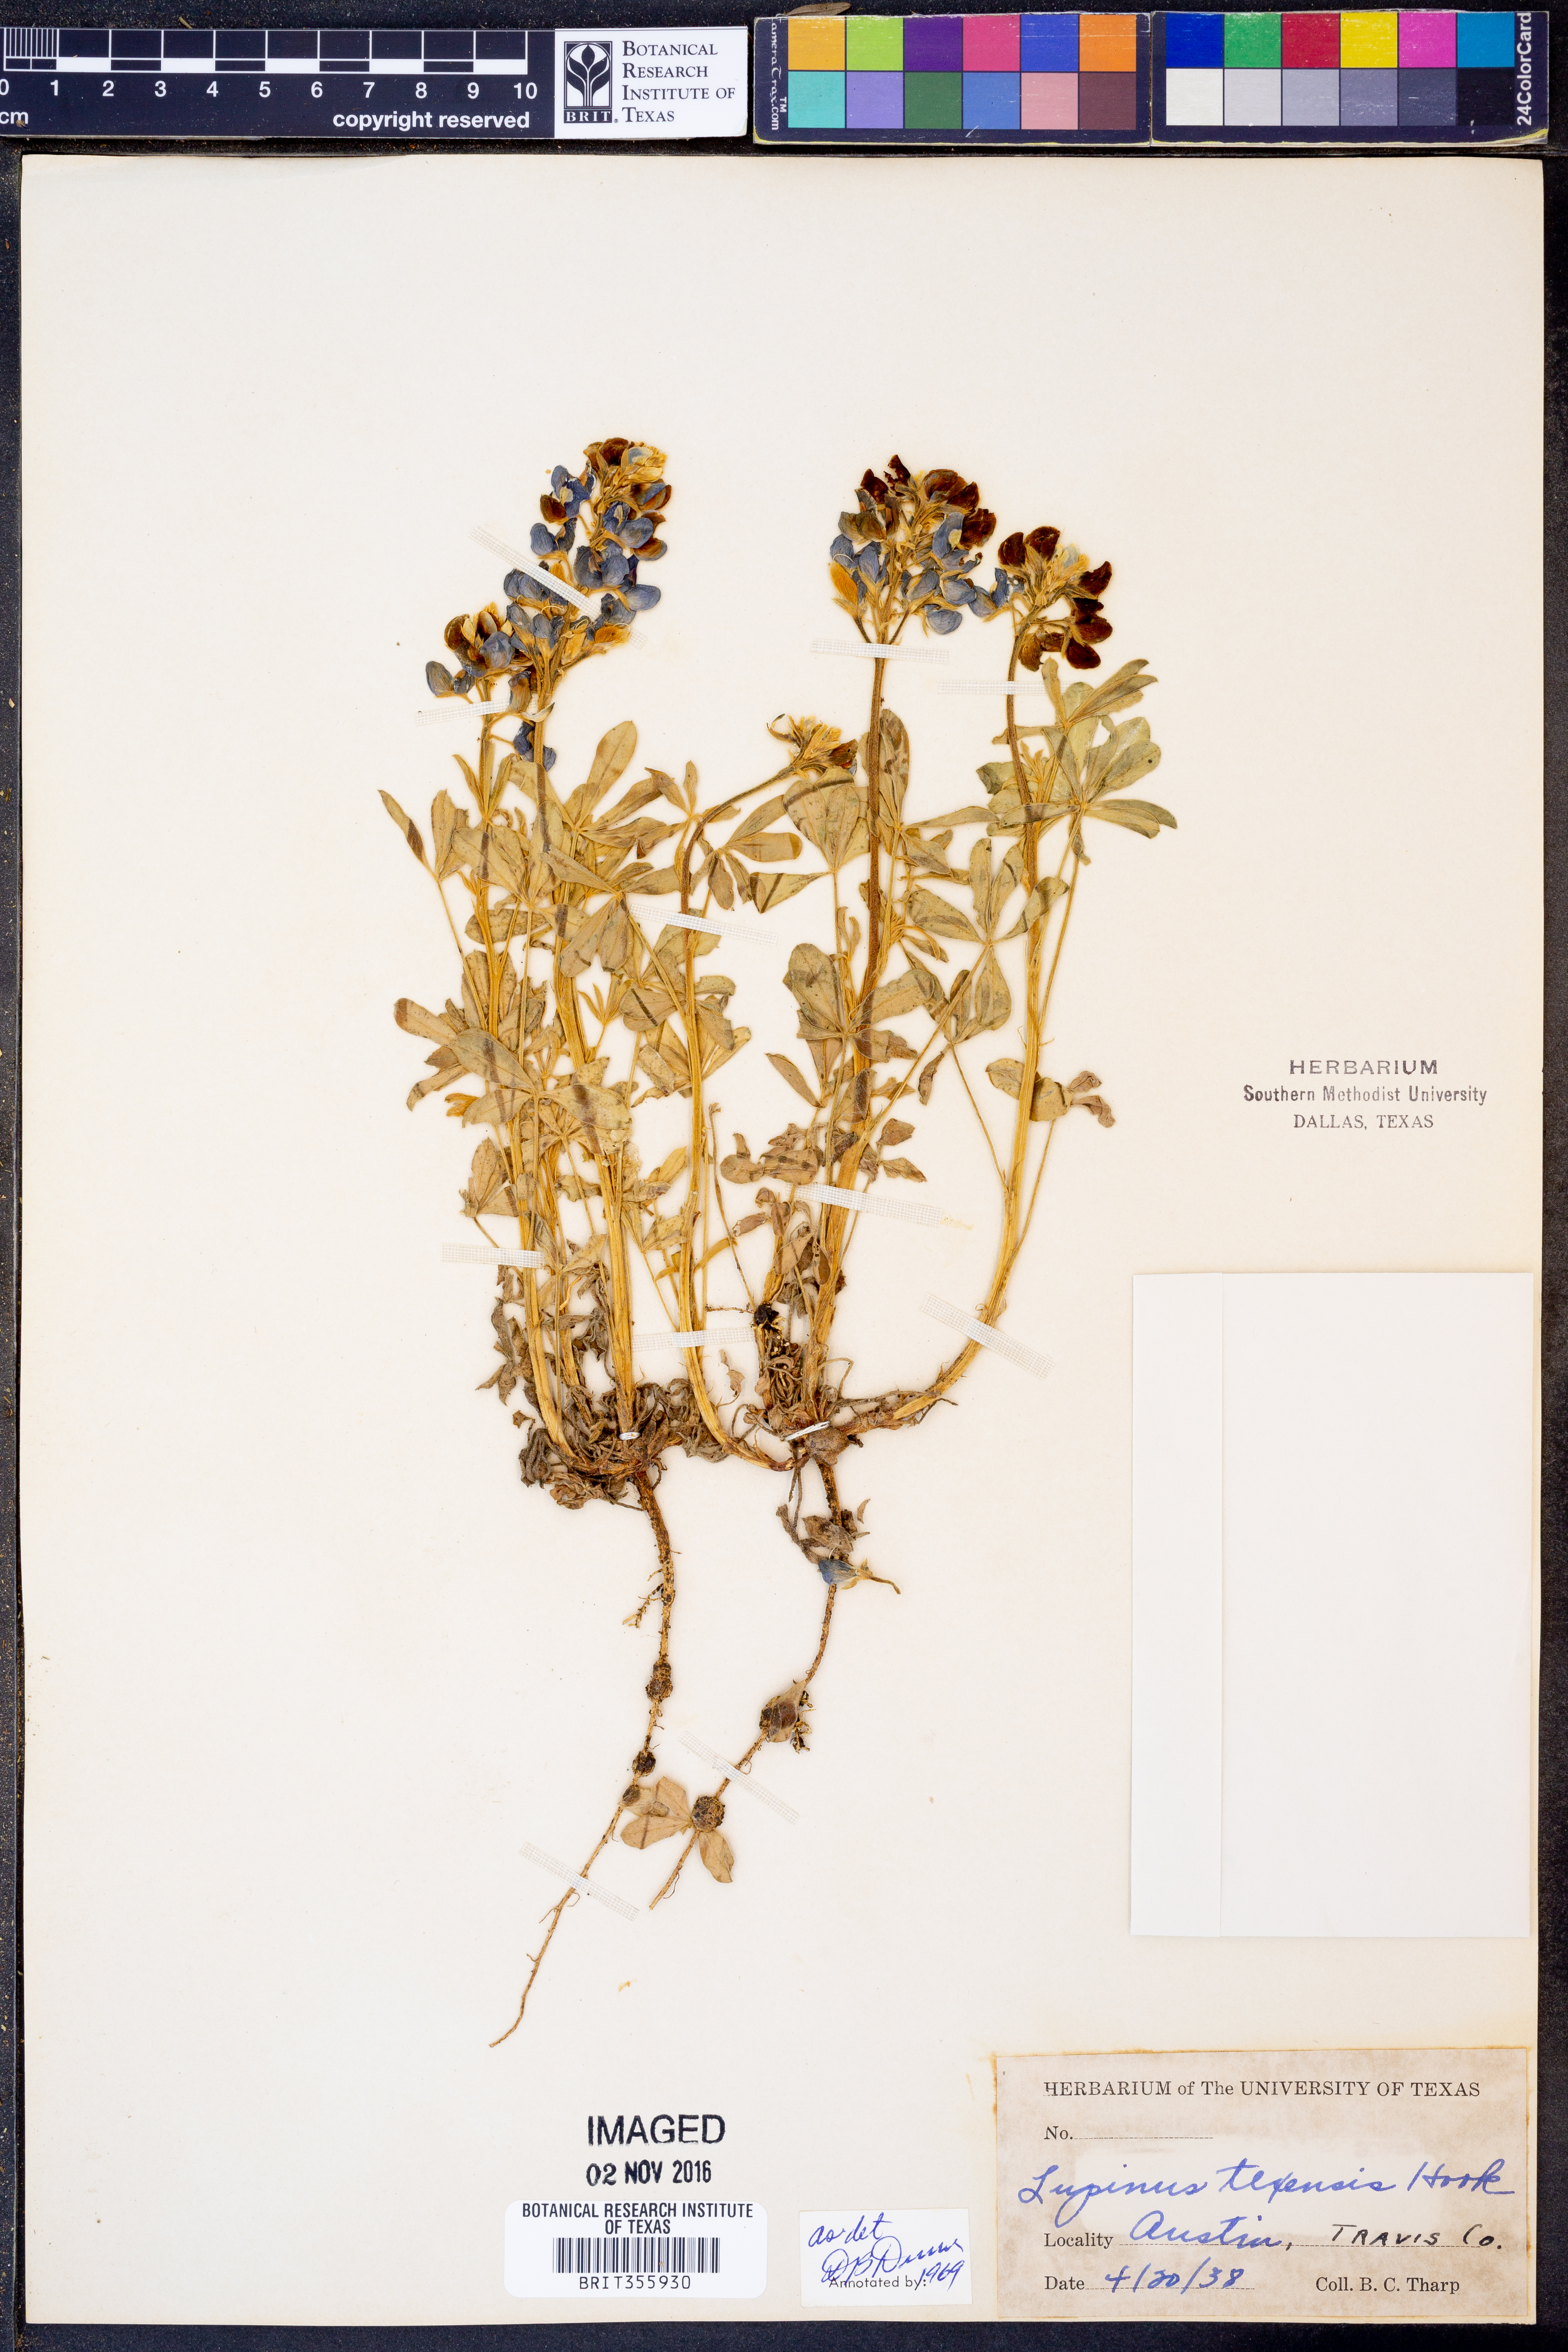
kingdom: Plantae
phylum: Tracheophyta
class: Magnoliopsida
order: Fabales
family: Fabaceae
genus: Lupinus
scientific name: Lupinus texensis
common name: Texas bluebonnet
